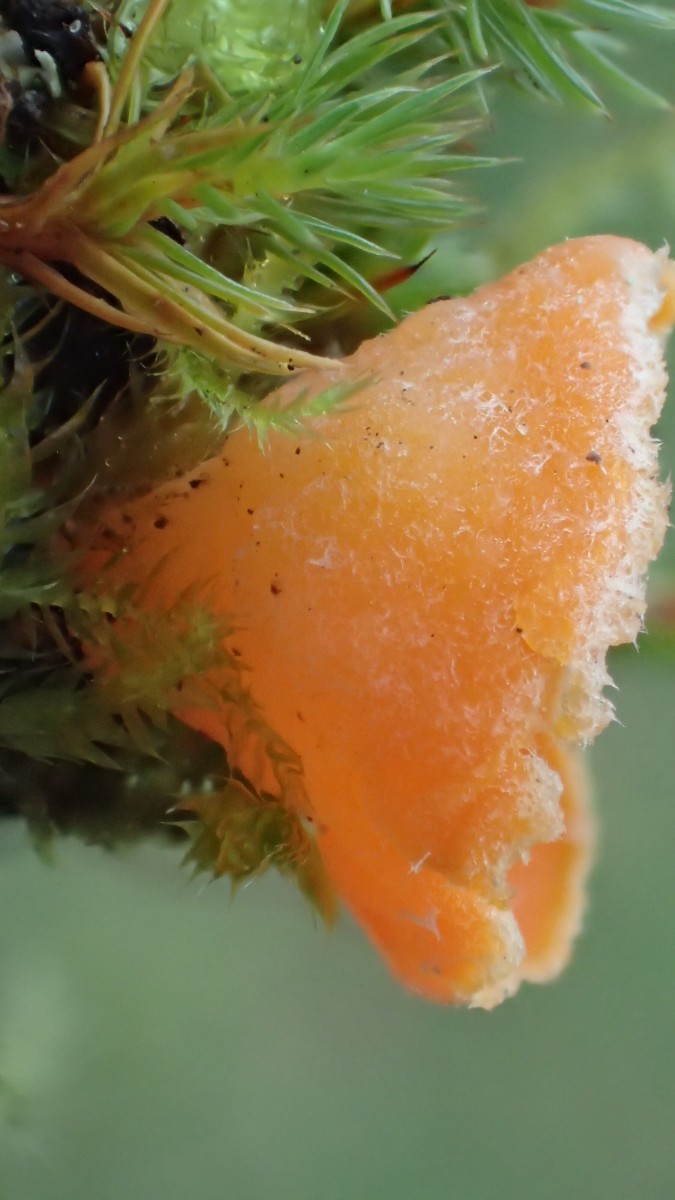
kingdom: Fungi
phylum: Ascomycota
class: Pezizomycetes
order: Pezizales
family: Pyronemataceae
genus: Neottiella
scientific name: Neottiella rutilans
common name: jomfruhår-mosbæger
